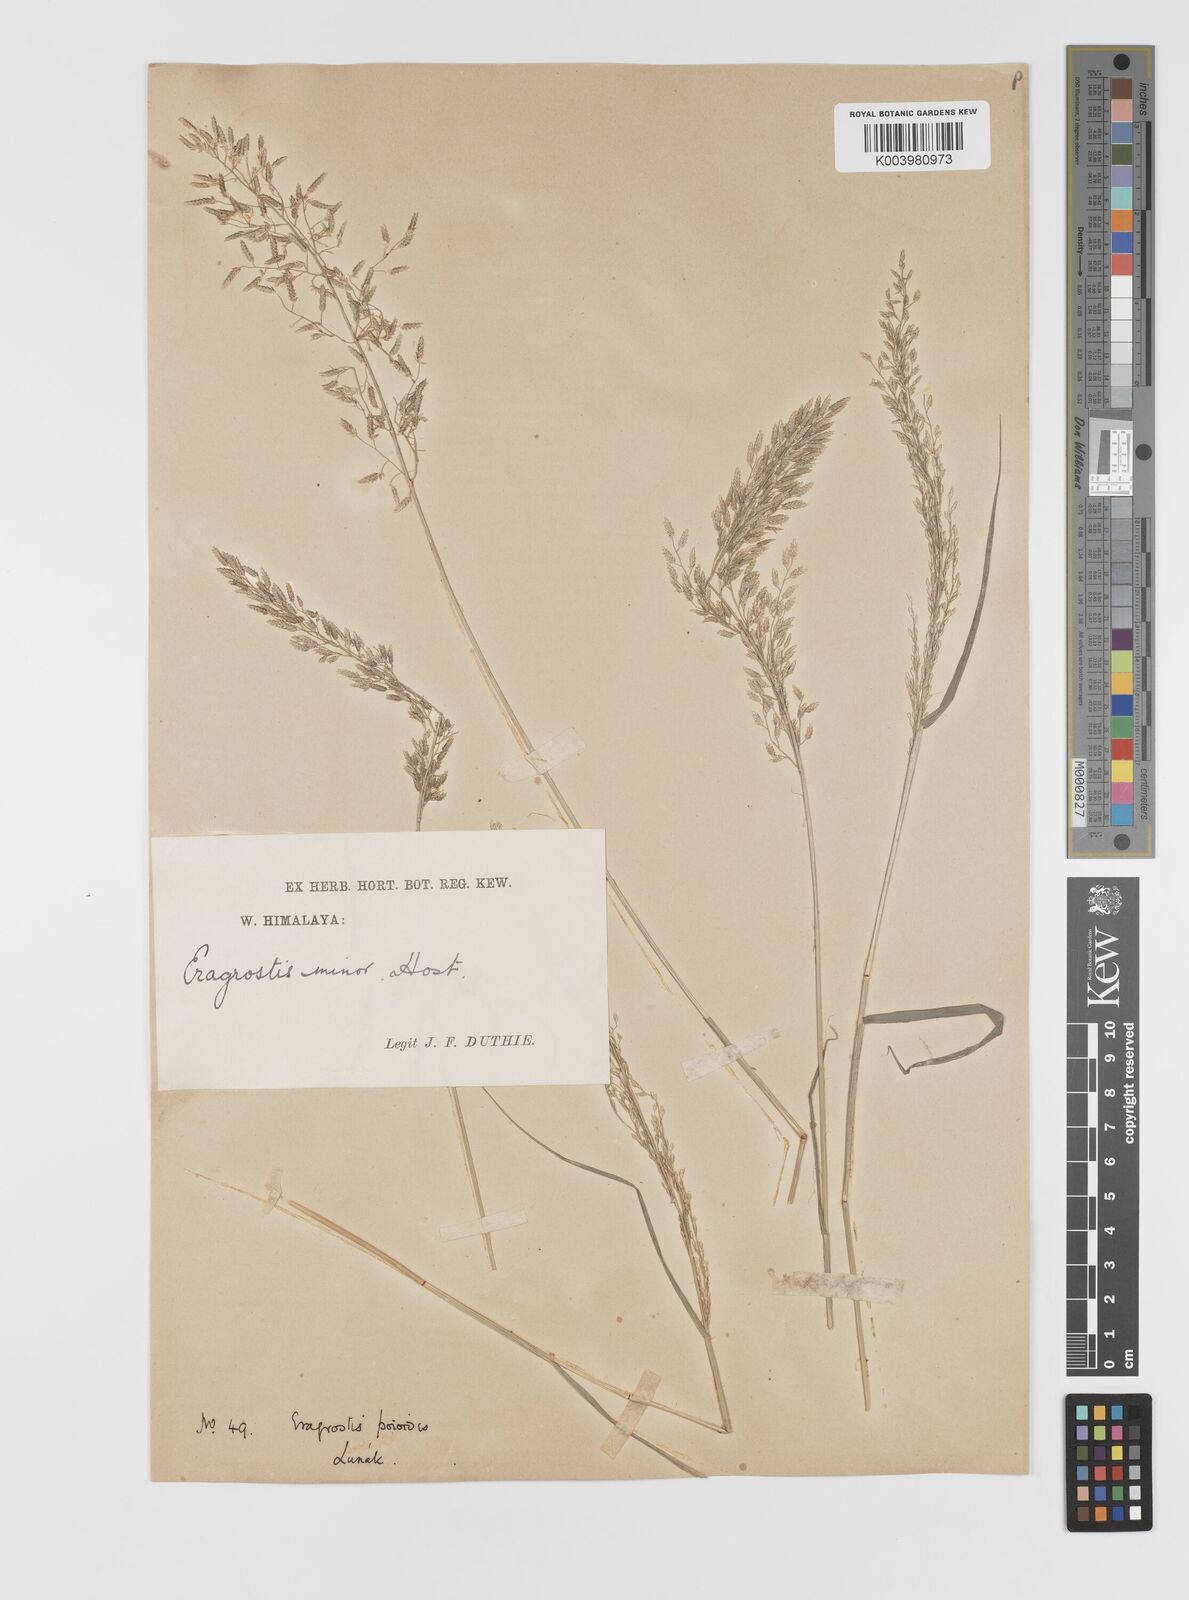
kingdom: Plantae
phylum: Tracheophyta
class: Liliopsida
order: Poales
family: Poaceae
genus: Eragrostis
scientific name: Eragrostis minor
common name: Small love-grass
